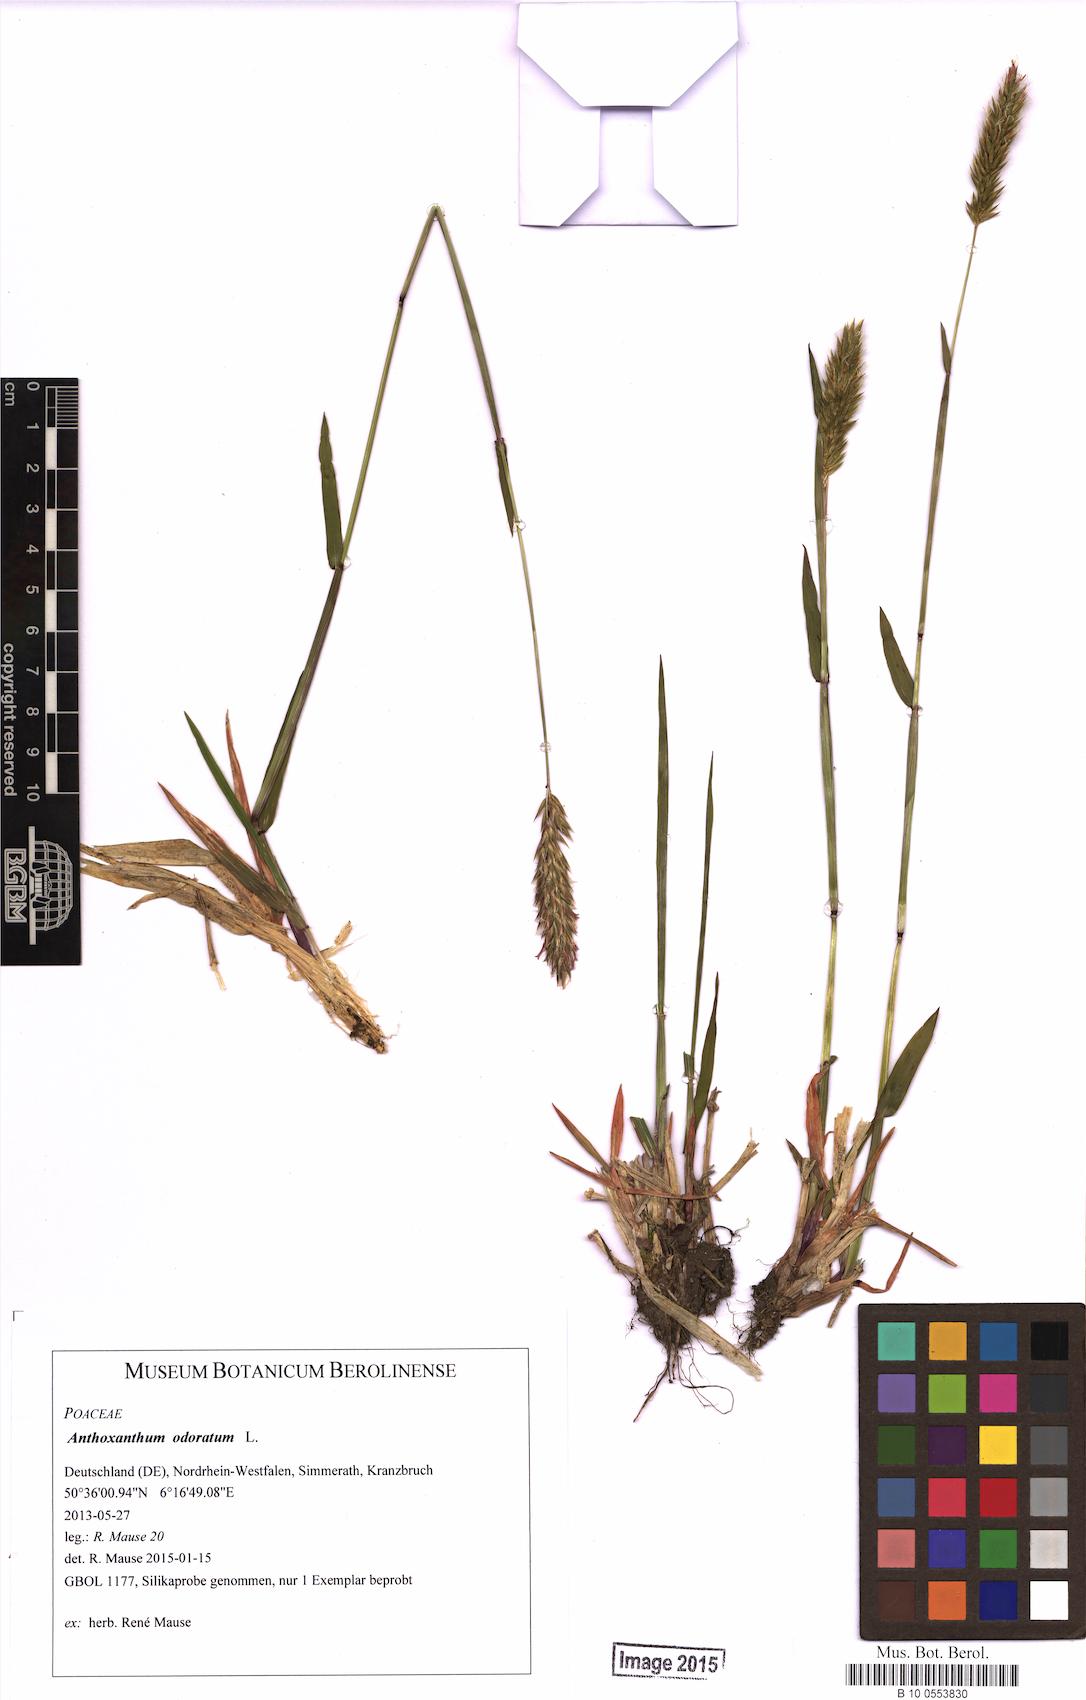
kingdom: Plantae
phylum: Tracheophyta
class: Liliopsida
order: Poales
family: Poaceae
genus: Anthoxanthum
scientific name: Anthoxanthum odoratum
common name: Sweet vernalgrass
